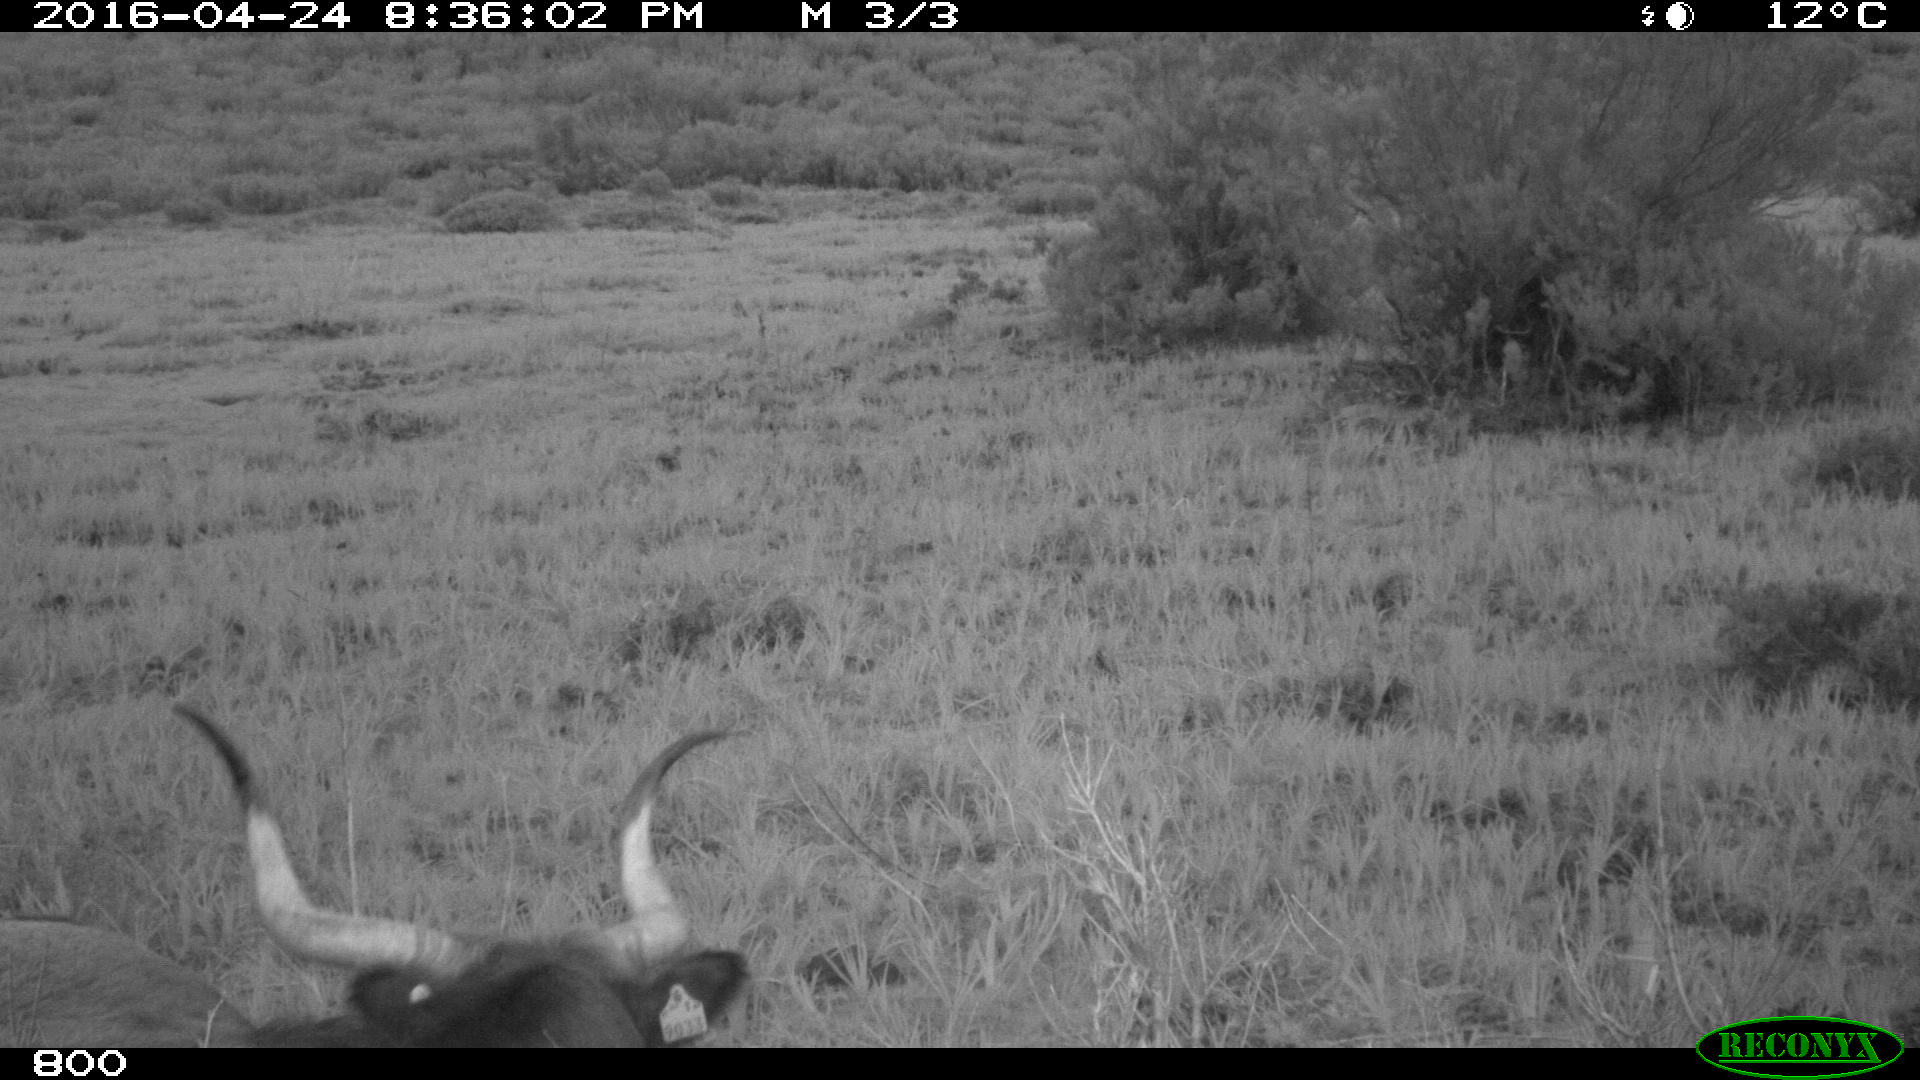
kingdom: Animalia
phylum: Chordata
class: Mammalia
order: Artiodactyla
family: Bovidae
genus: Bos
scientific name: Bos taurus
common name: Domesticated cattle
